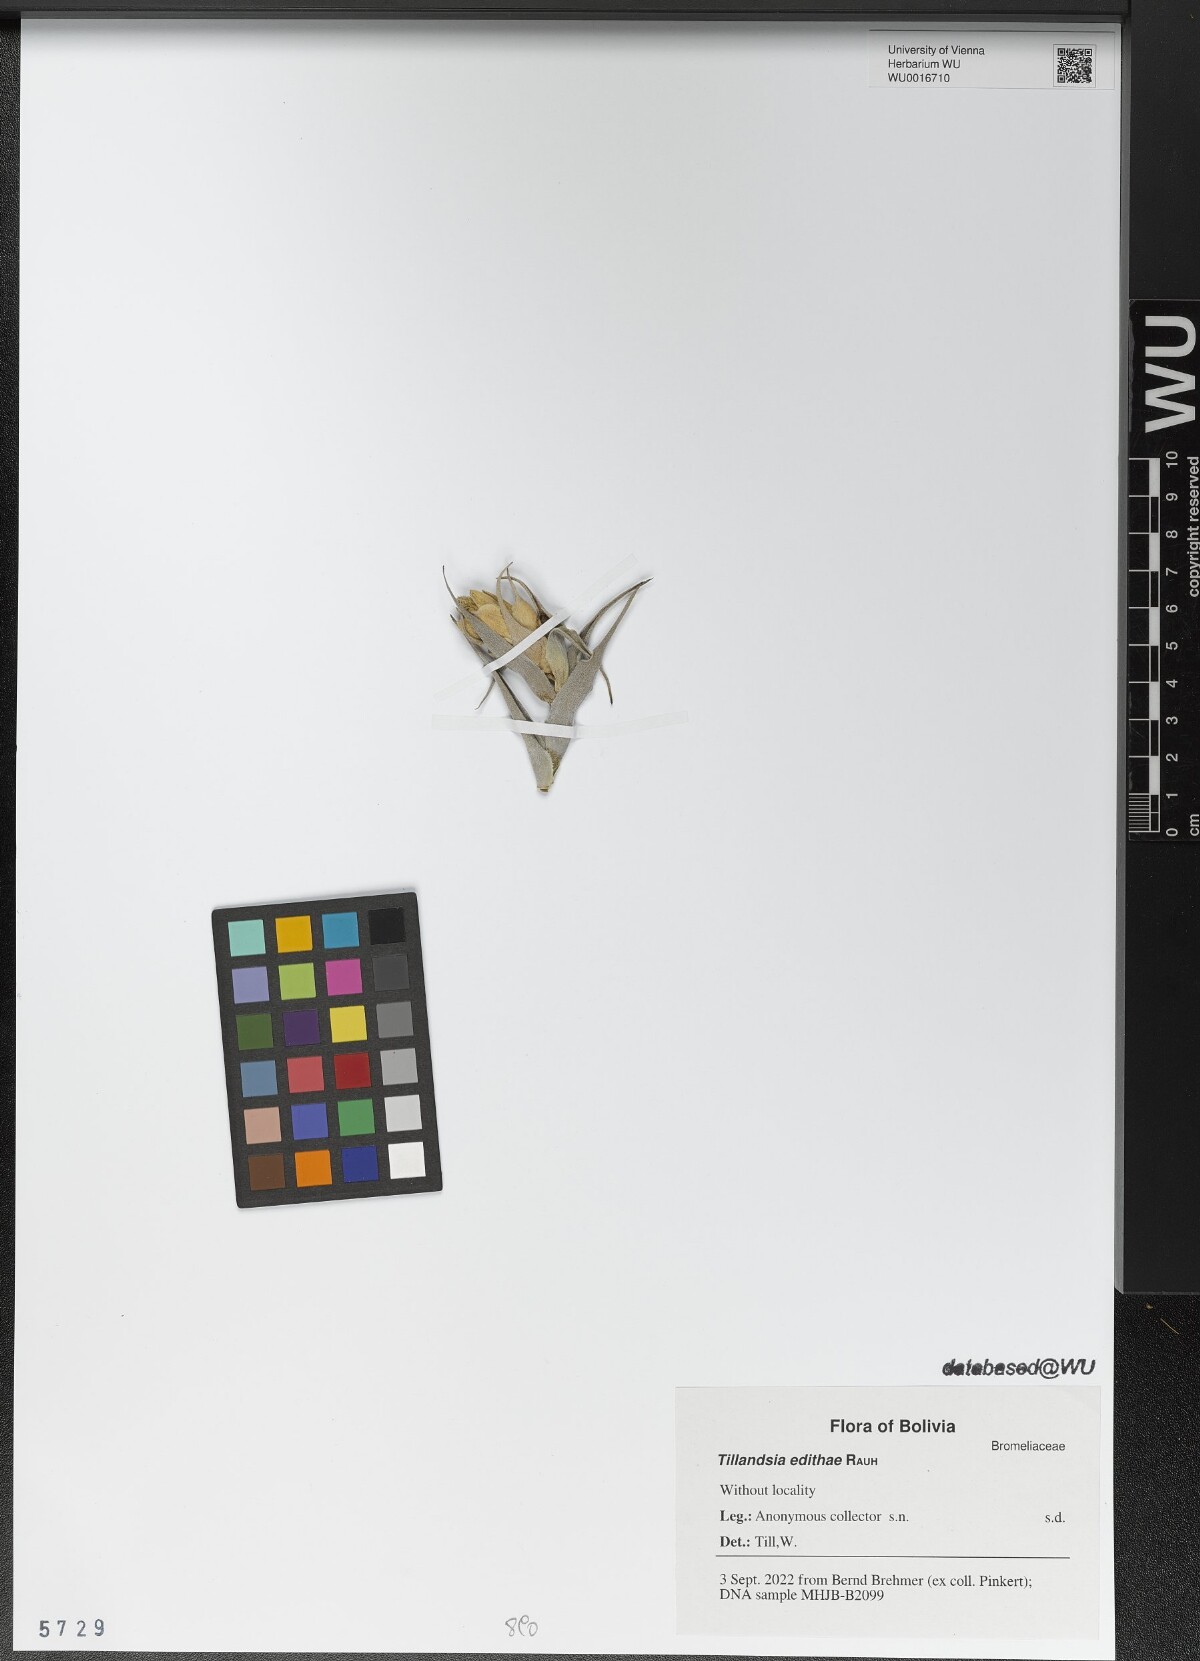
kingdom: Plantae
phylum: Tracheophyta
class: Liliopsida
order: Poales
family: Bromeliaceae
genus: Tillandsia
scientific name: Tillandsia edithae
